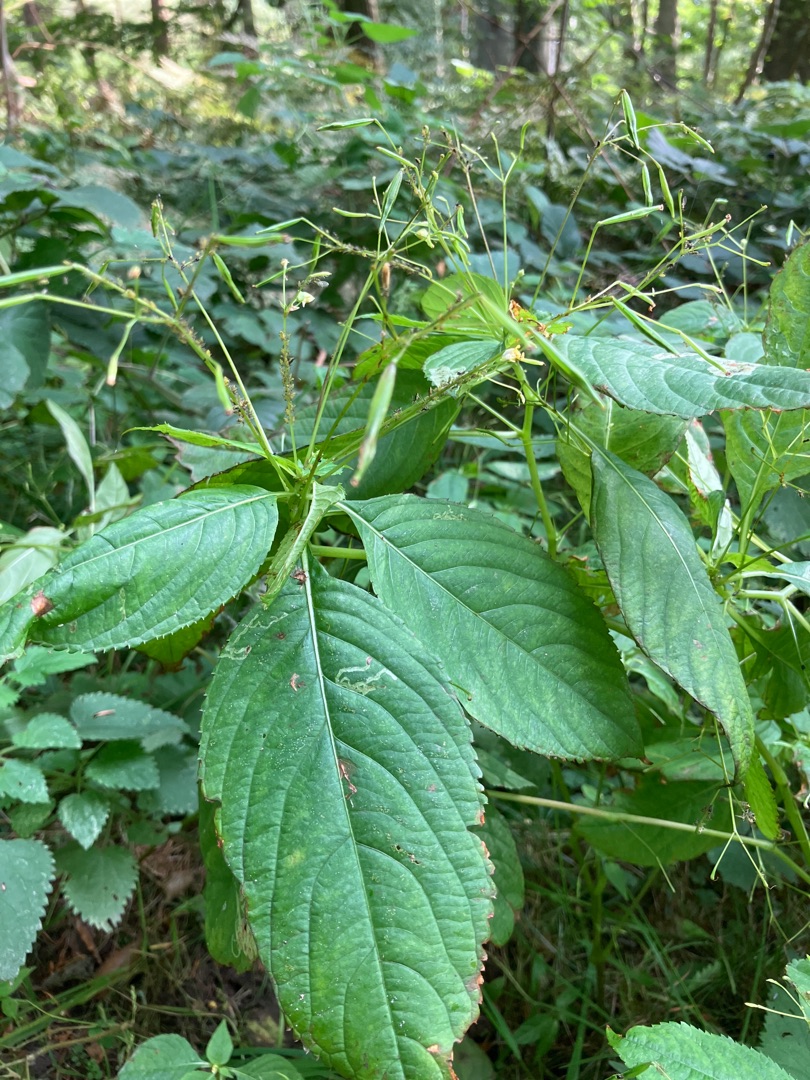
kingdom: Plantae
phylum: Tracheophyta
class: Magnoliopsida
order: Ericales
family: Balsaminaceae
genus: Impatiens
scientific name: Impatiens parviflora
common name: Småblomstret balsamin
